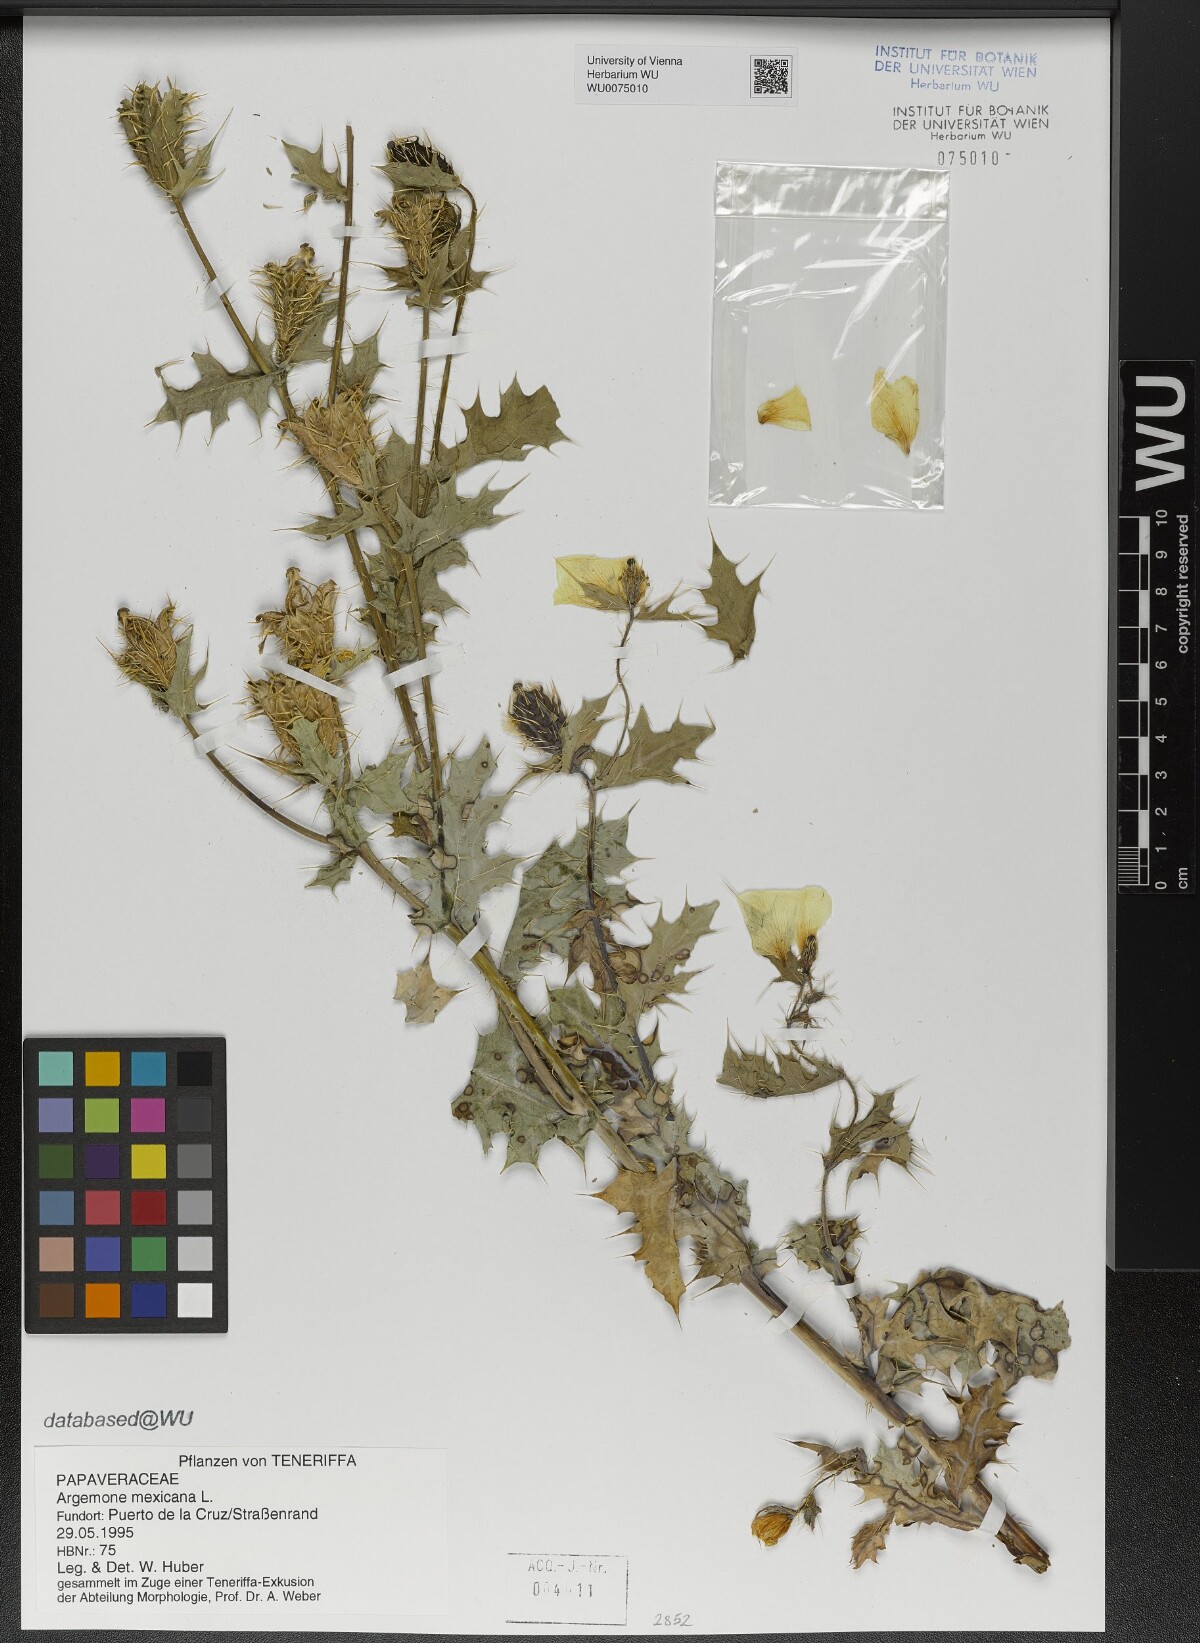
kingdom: Plantae
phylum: Tracheophyta
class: Magnoliopsida
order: Ranunculales
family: Papaveraceae
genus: Argemone
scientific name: Argemone mexicana
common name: Mexican poppy
